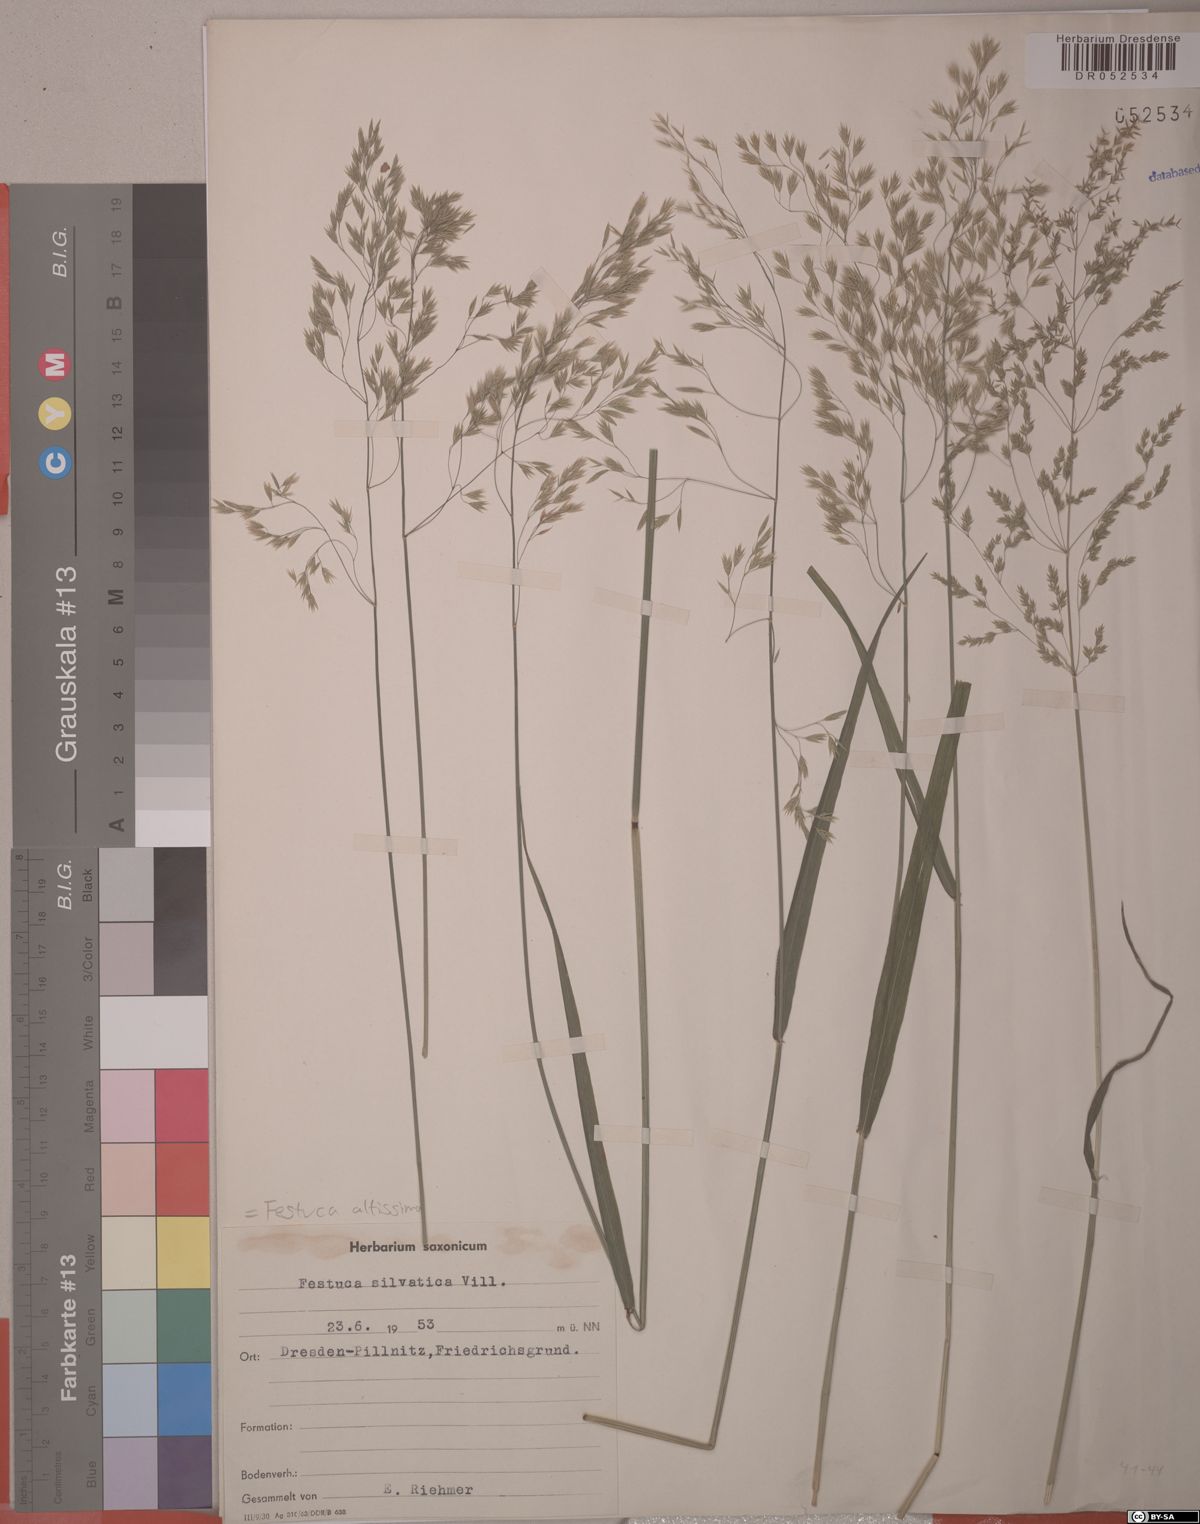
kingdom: Plantae
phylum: Tracheophyta
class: Liliopsida
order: Poales
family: Poaceae
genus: Festuca
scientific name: Festuca altissima
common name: Wood fescue
